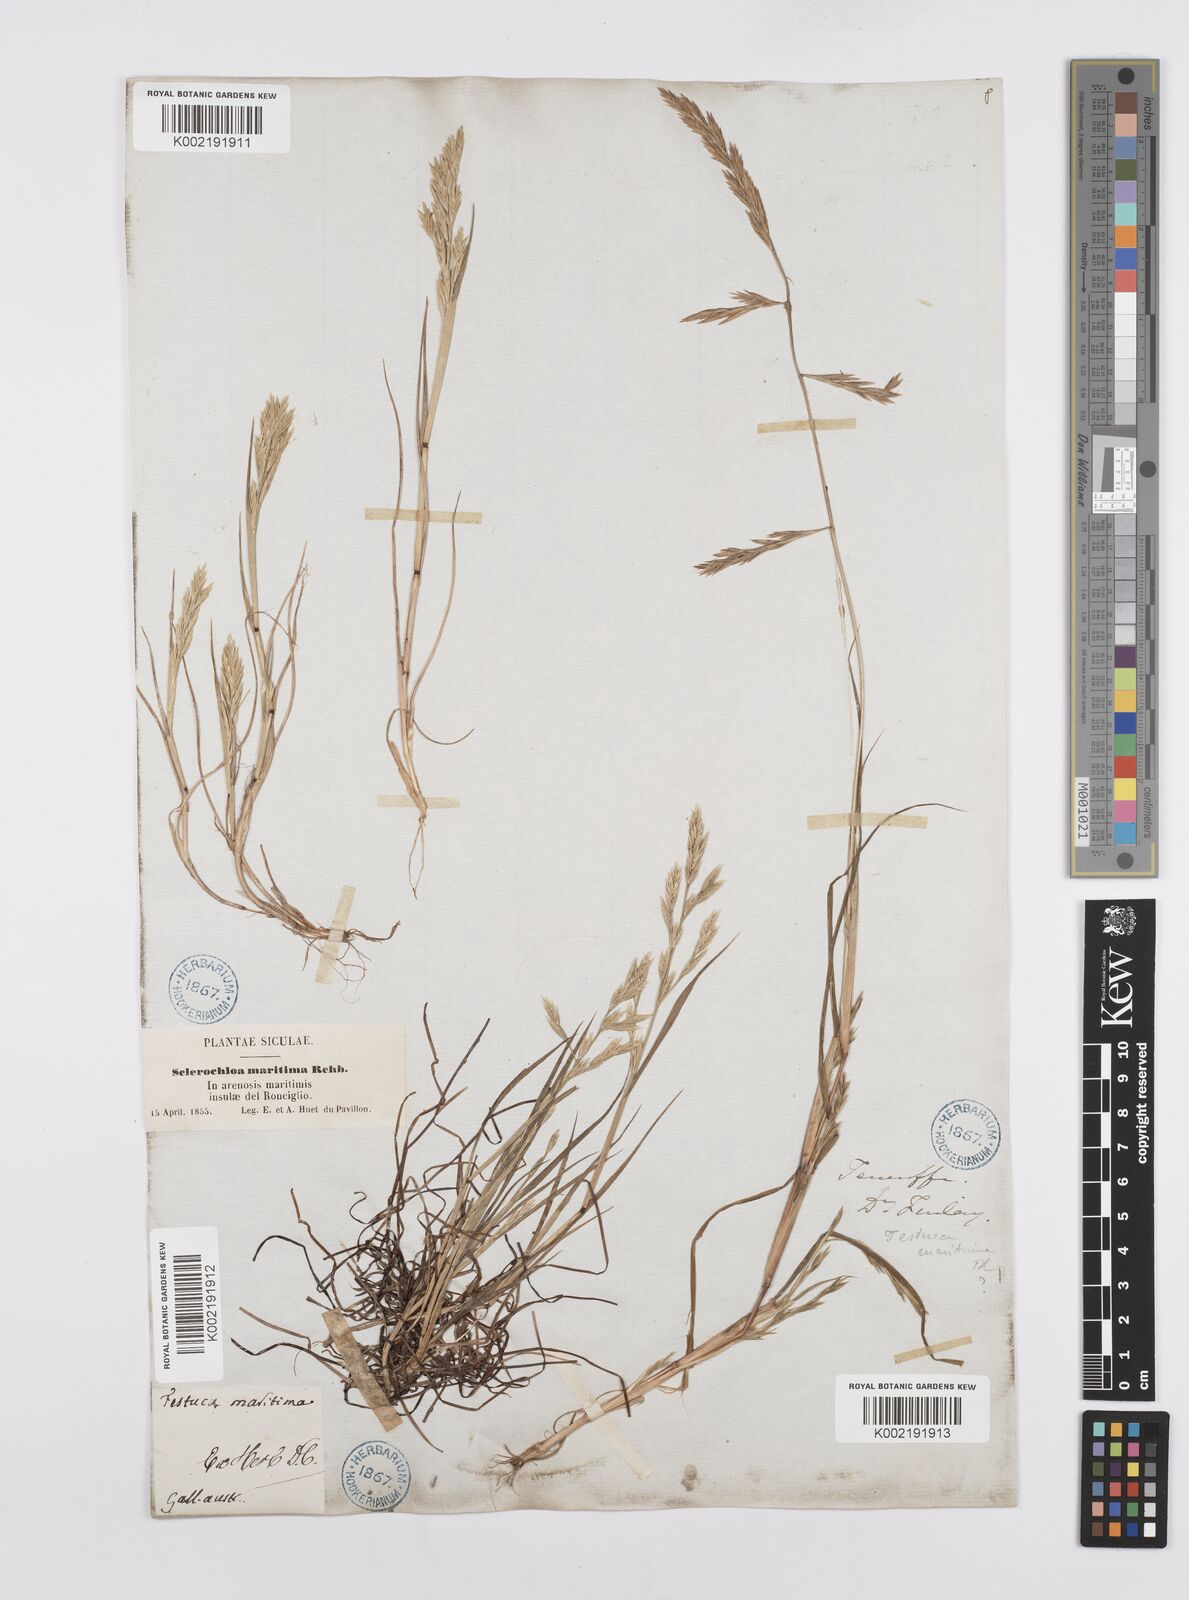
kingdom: Plantae
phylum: Tracheophyta
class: Liliopsida
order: Poales
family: Poaceae
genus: Cutandia
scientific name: Cutandia maritima
